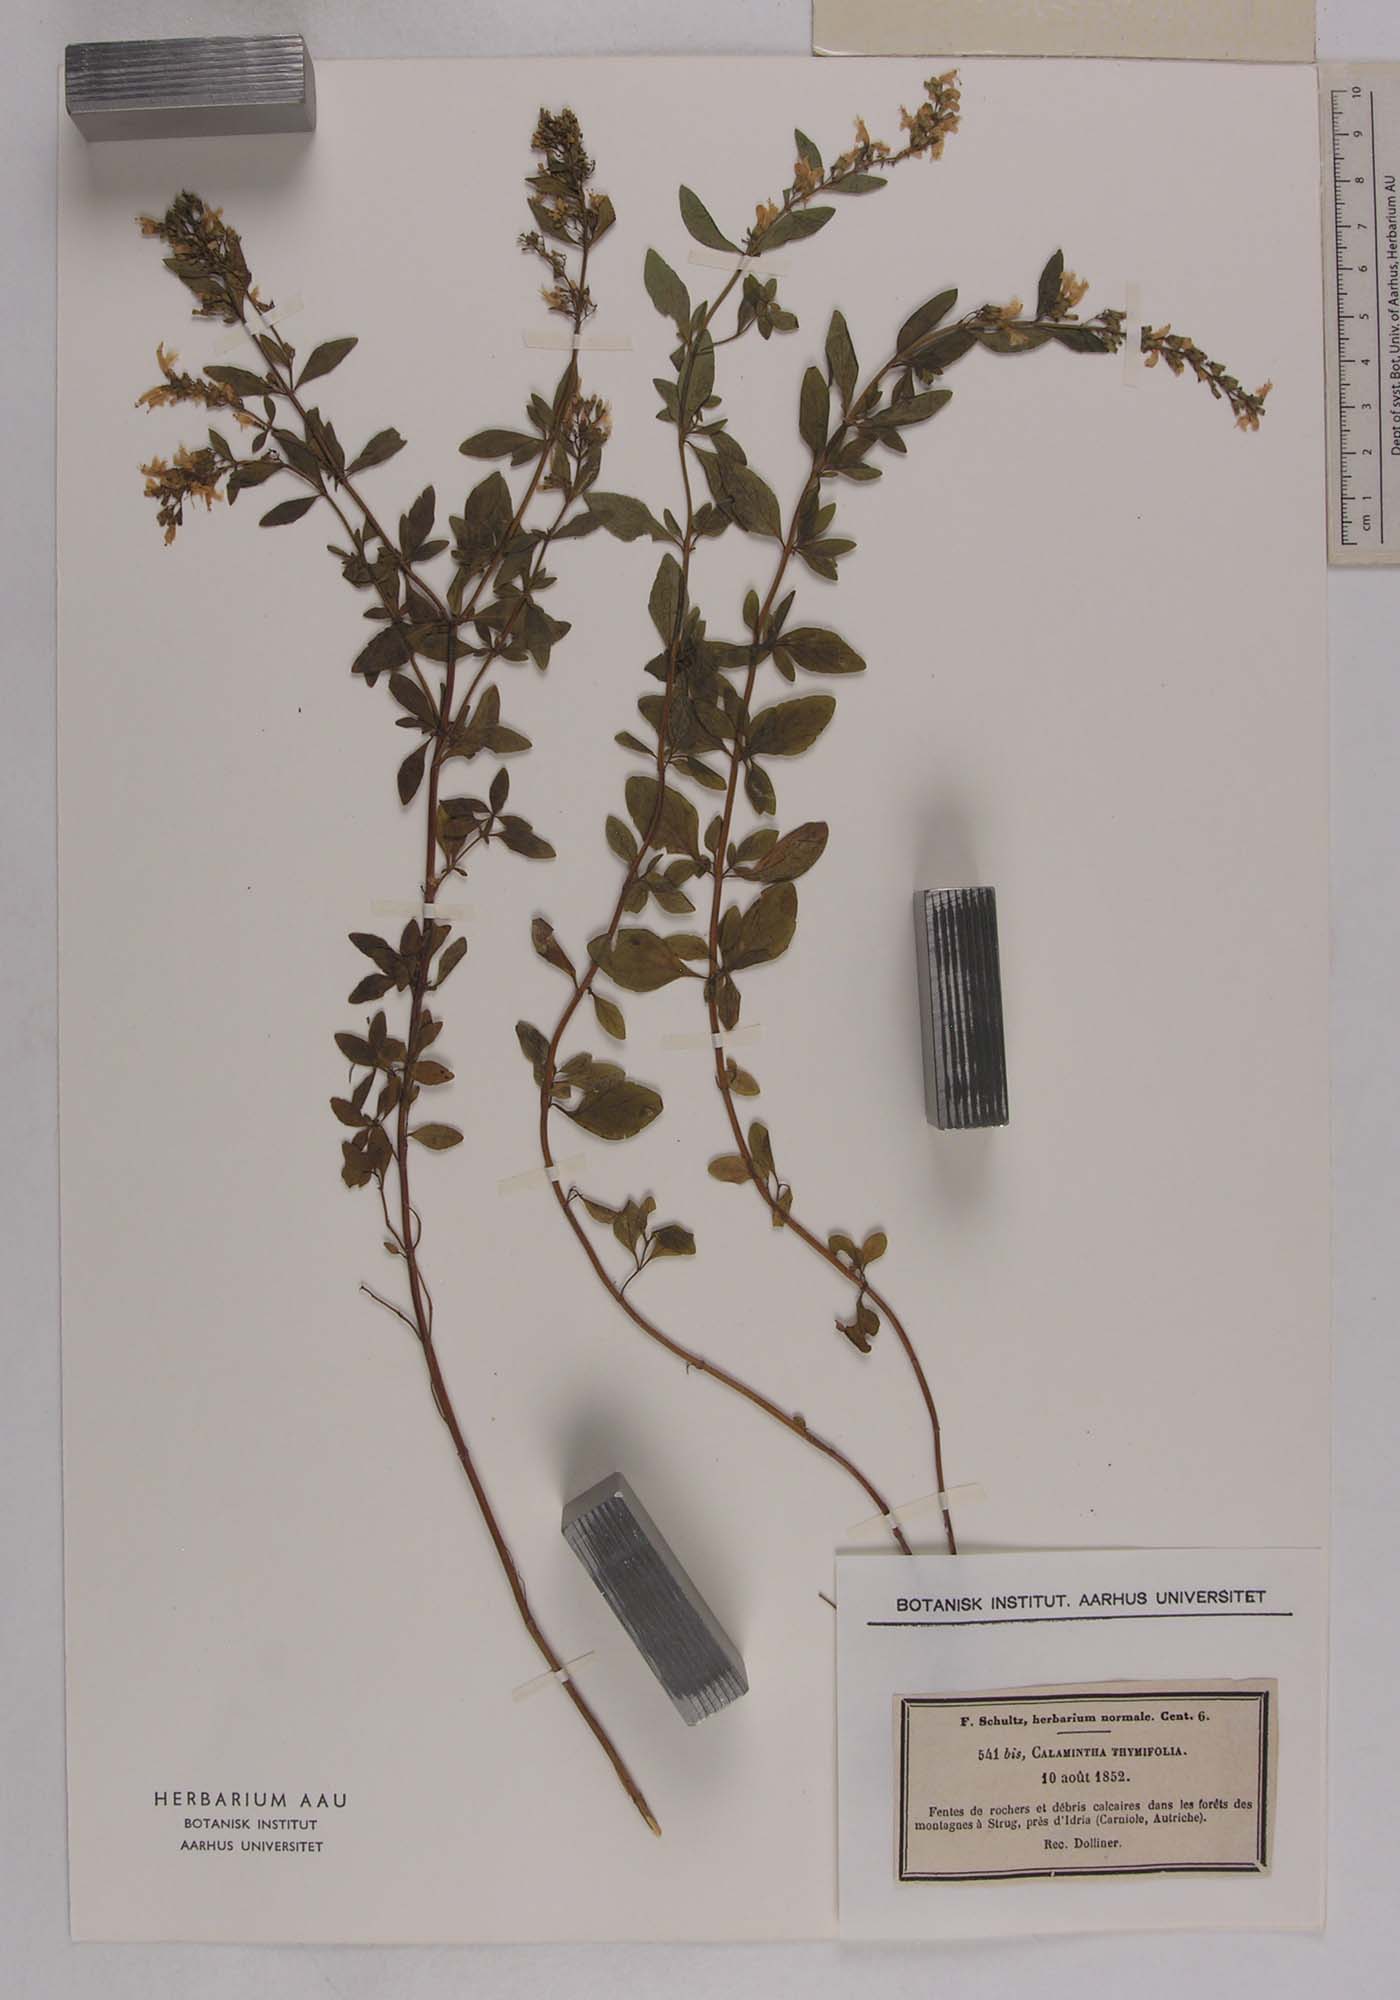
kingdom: Plantae
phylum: Tracheophyta
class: Magnoliopsida
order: Lamiales
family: Lamiaceae
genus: Clinopodium
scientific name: Clinopodium album
